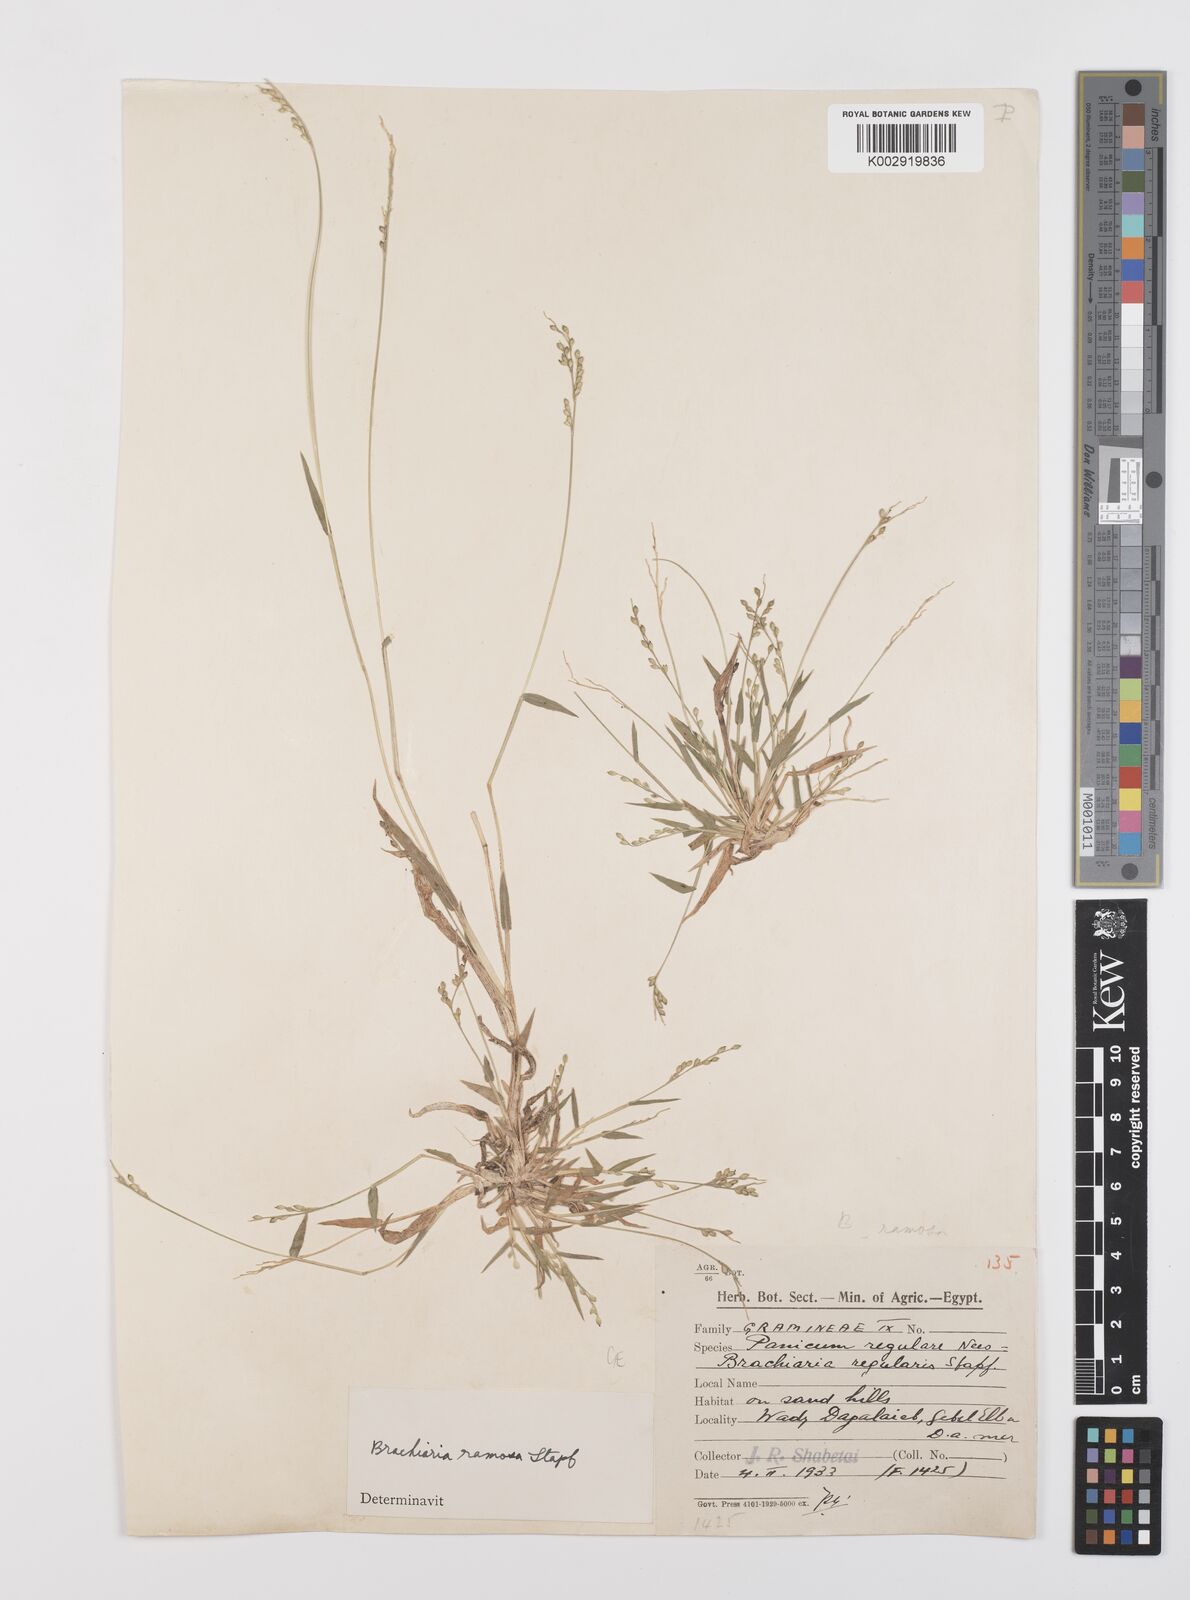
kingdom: Plantae
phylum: Tracheophyta
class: Liliopsida
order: Poales
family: Poaceae
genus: Urochloa
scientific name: Urochloa ramosa
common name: Browntop millet
